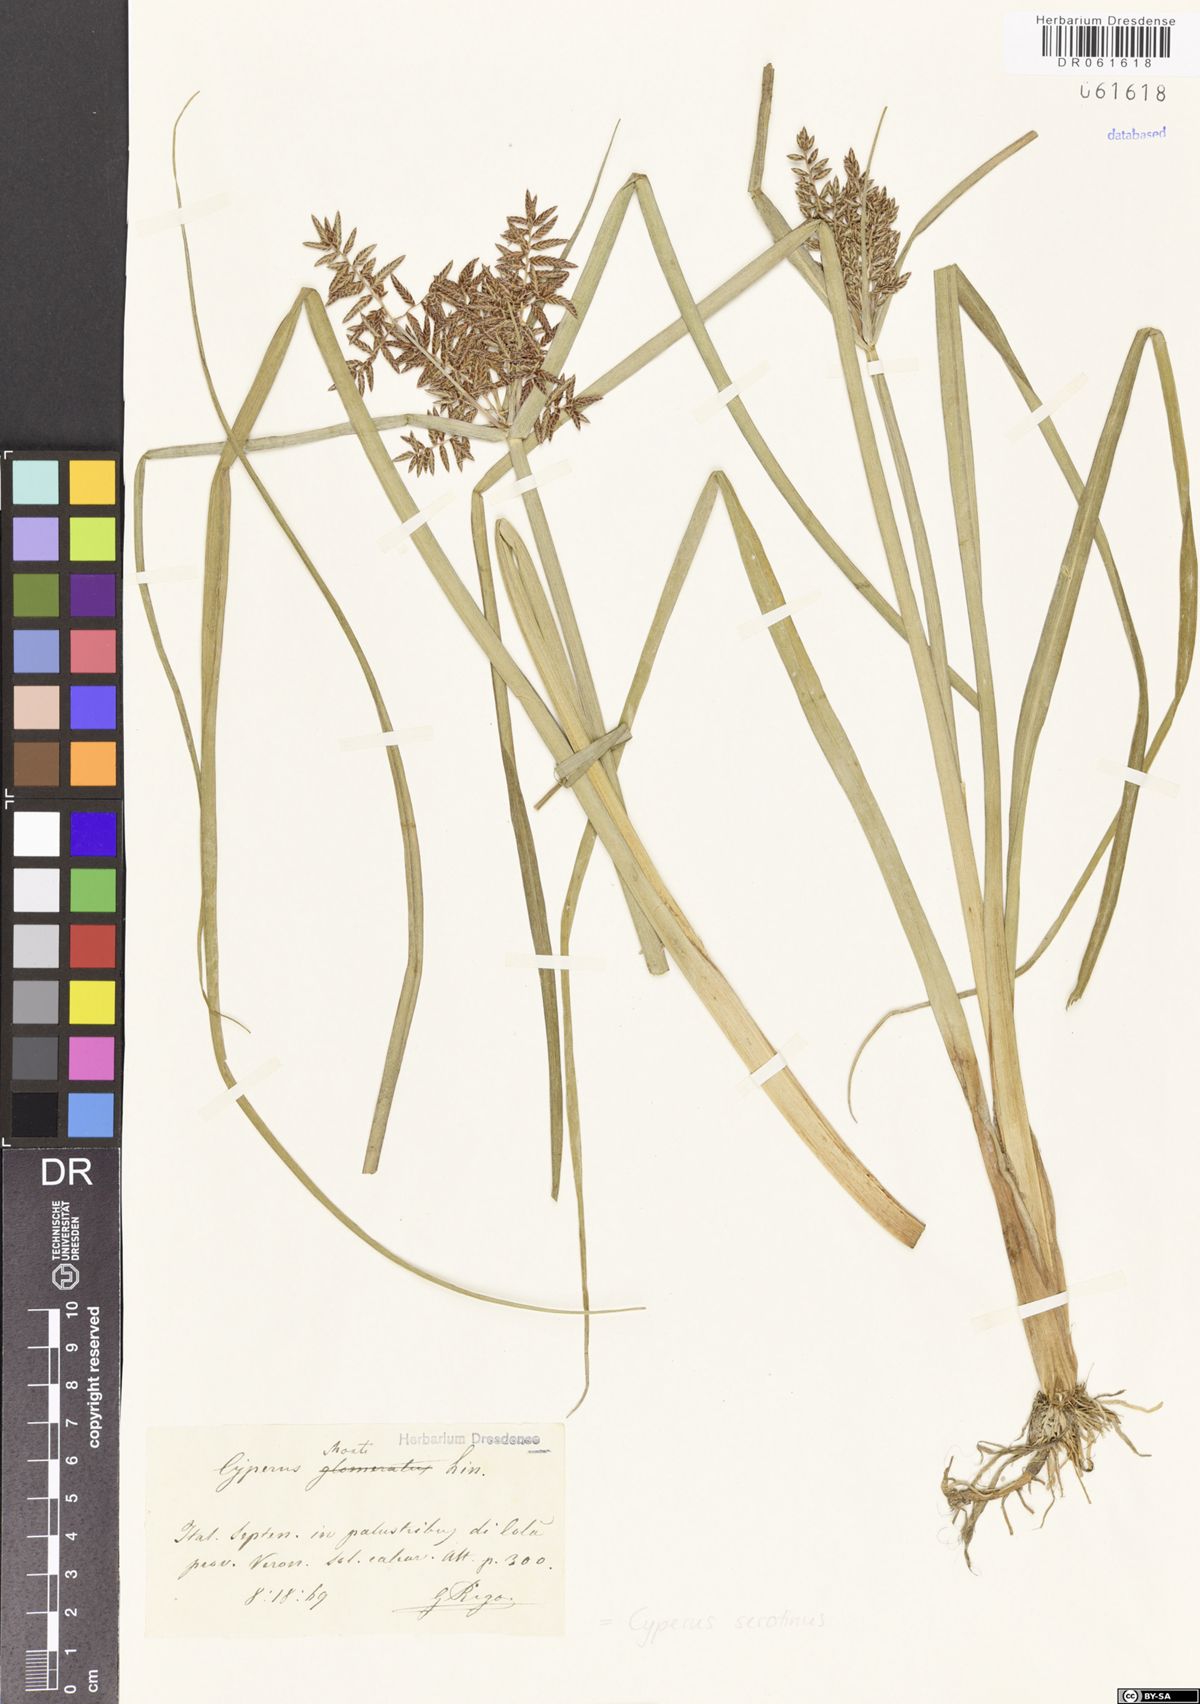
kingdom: Plantae
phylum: Tracheophyta
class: Liliopsida
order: Poales
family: Cyperaceae
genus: Cyperus
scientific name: Cyperus serotinus
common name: Tidalmarsh flatsedge
